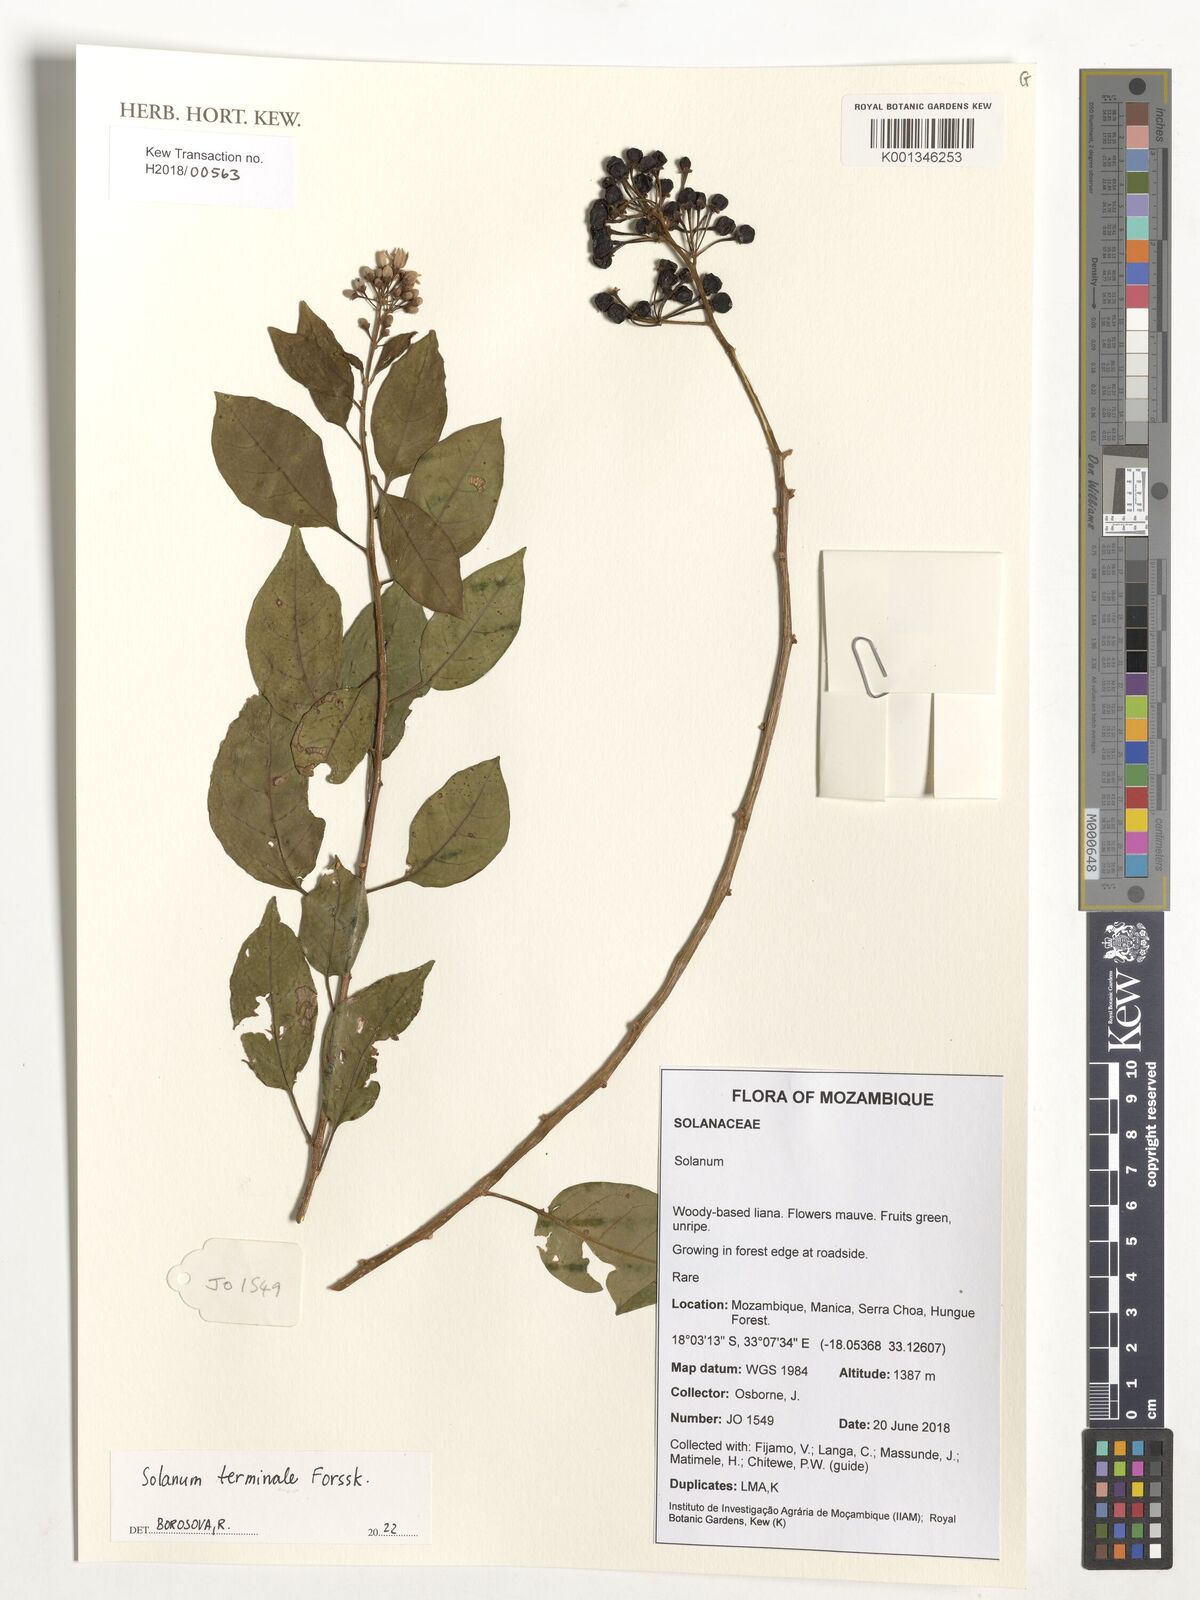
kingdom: Plantae
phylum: Tracheophyta
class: Magnoliopsida
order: Solanales
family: Solanaceae
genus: Solanum
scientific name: Solanum terminale
